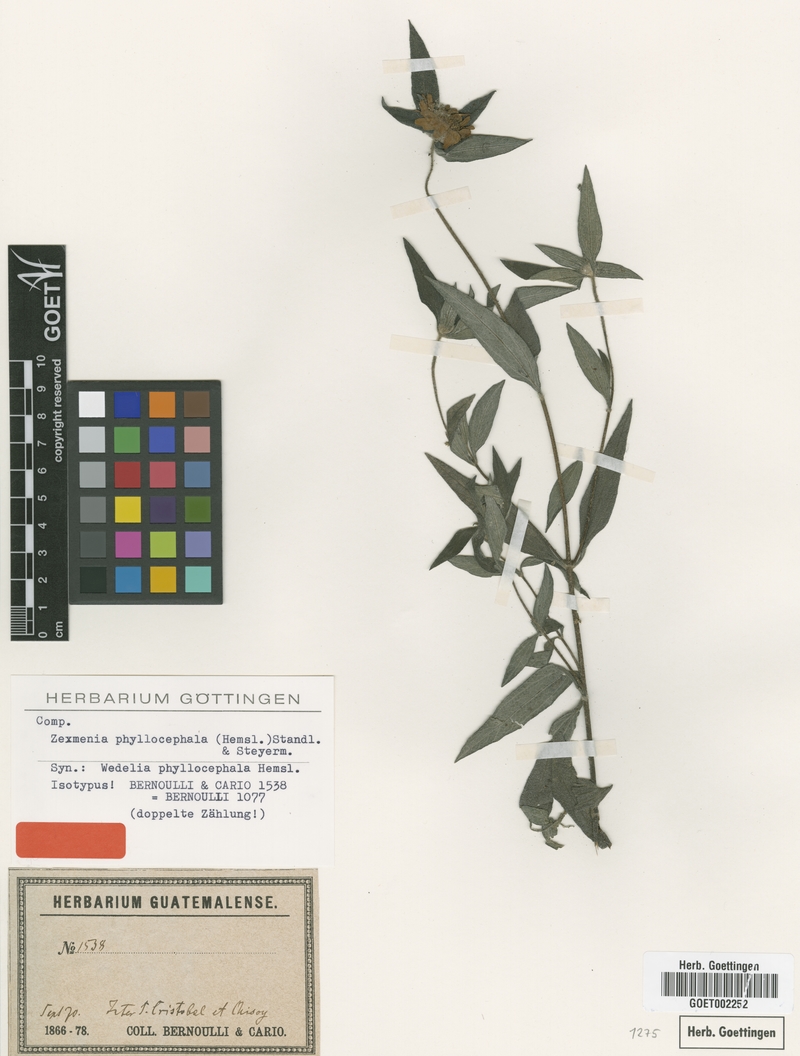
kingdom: Plantae
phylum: Tracheophyta
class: Magnoliopsida
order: Asterales
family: Asteraceae
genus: Jefea
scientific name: Jefea phyllocephala
